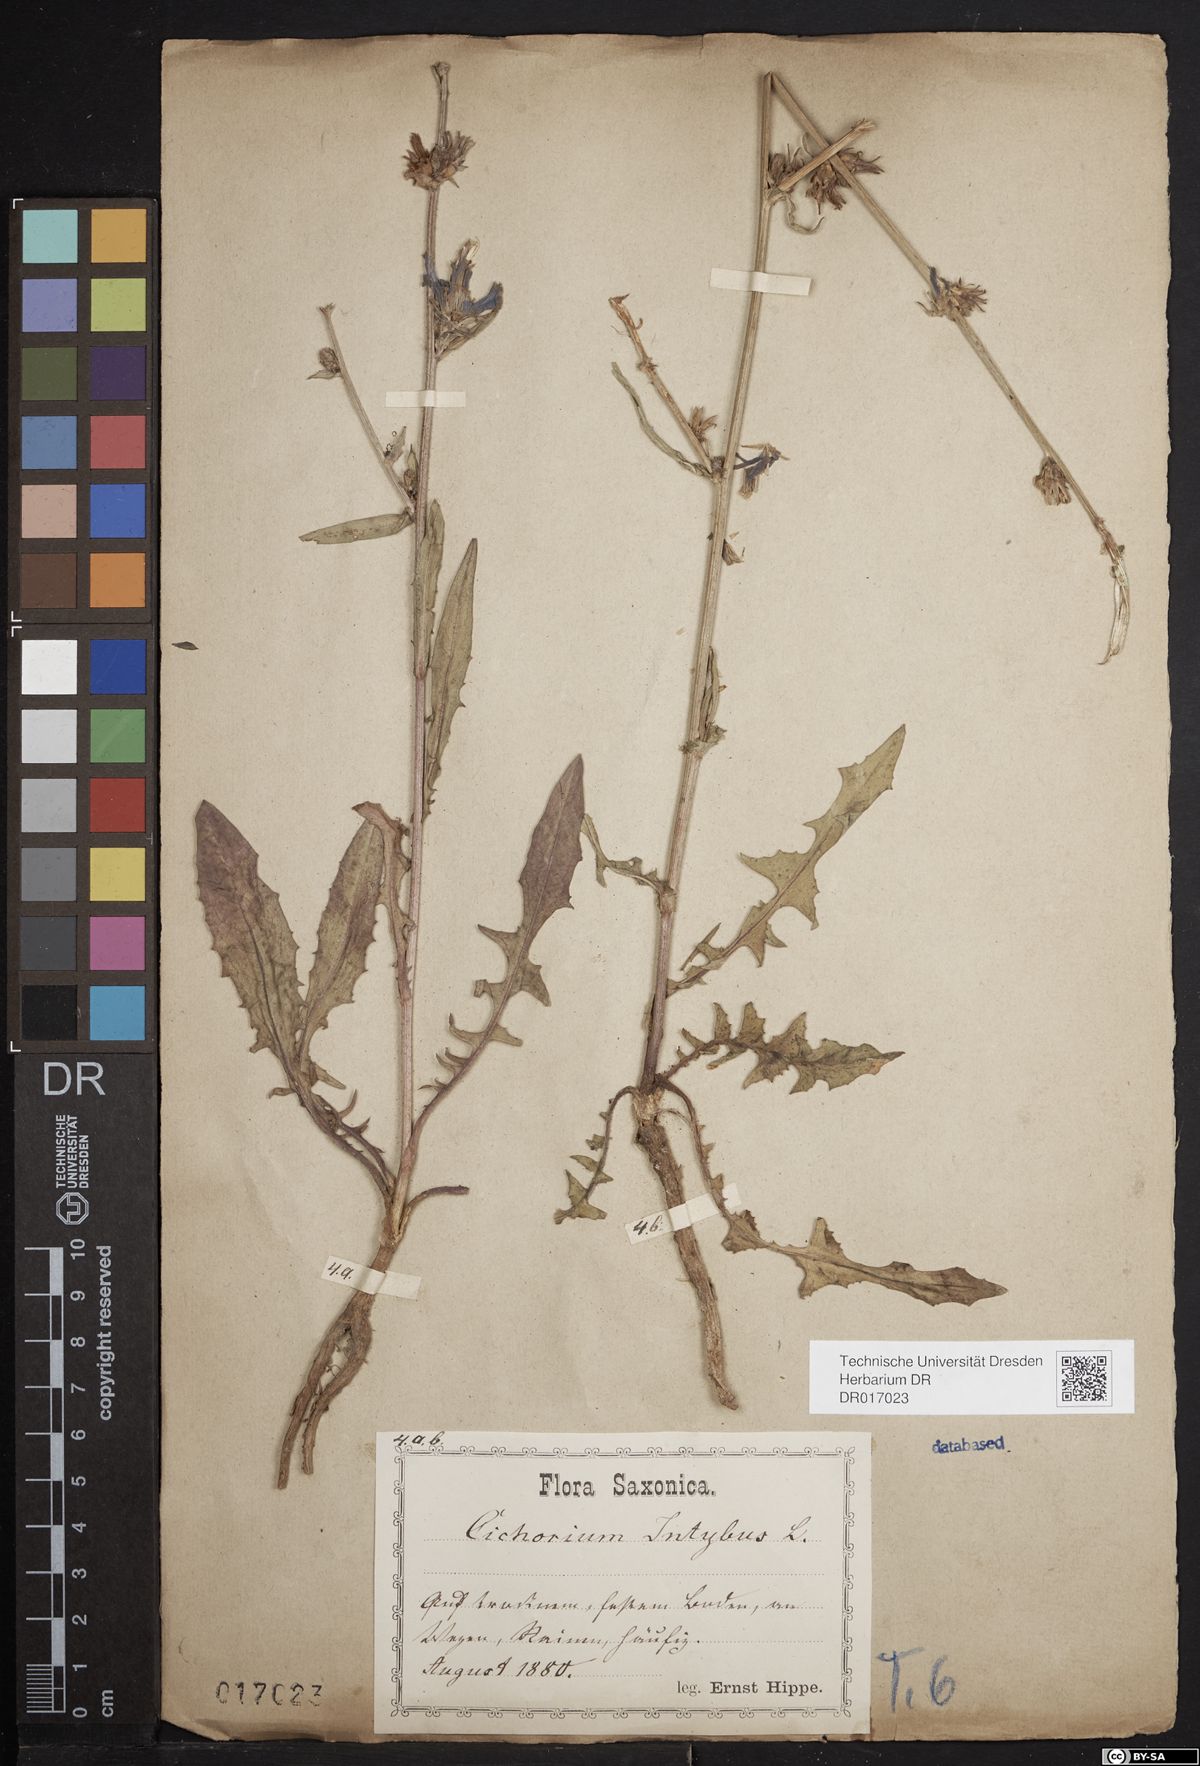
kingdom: Plantae
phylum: Tracheophyta
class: Magnoliopsida
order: Asterales
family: Asteraceae
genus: Cichorium
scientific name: Cichorium intybus
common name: Chicory
